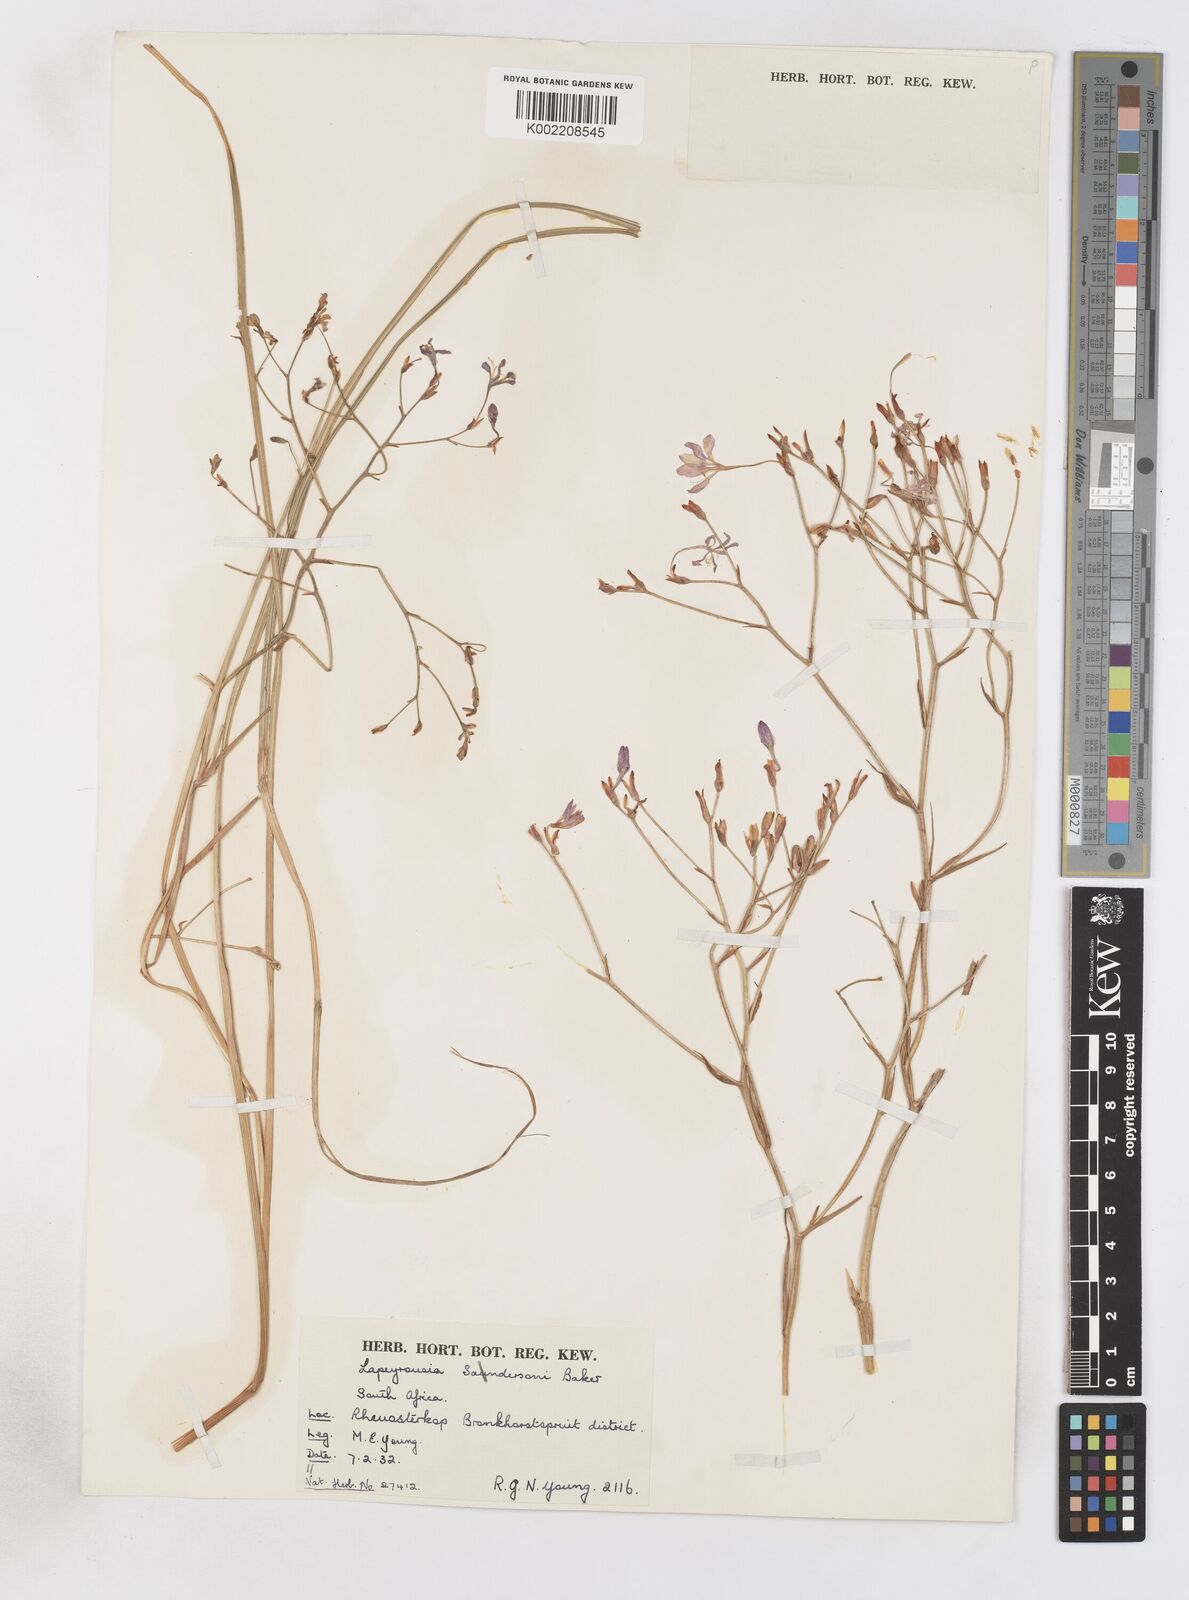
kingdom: Plantae
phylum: Tracheophyta
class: Liliopsida
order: Asparagales
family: Iridaceae
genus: Afrosolen
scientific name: Afrosolen sandersonii
